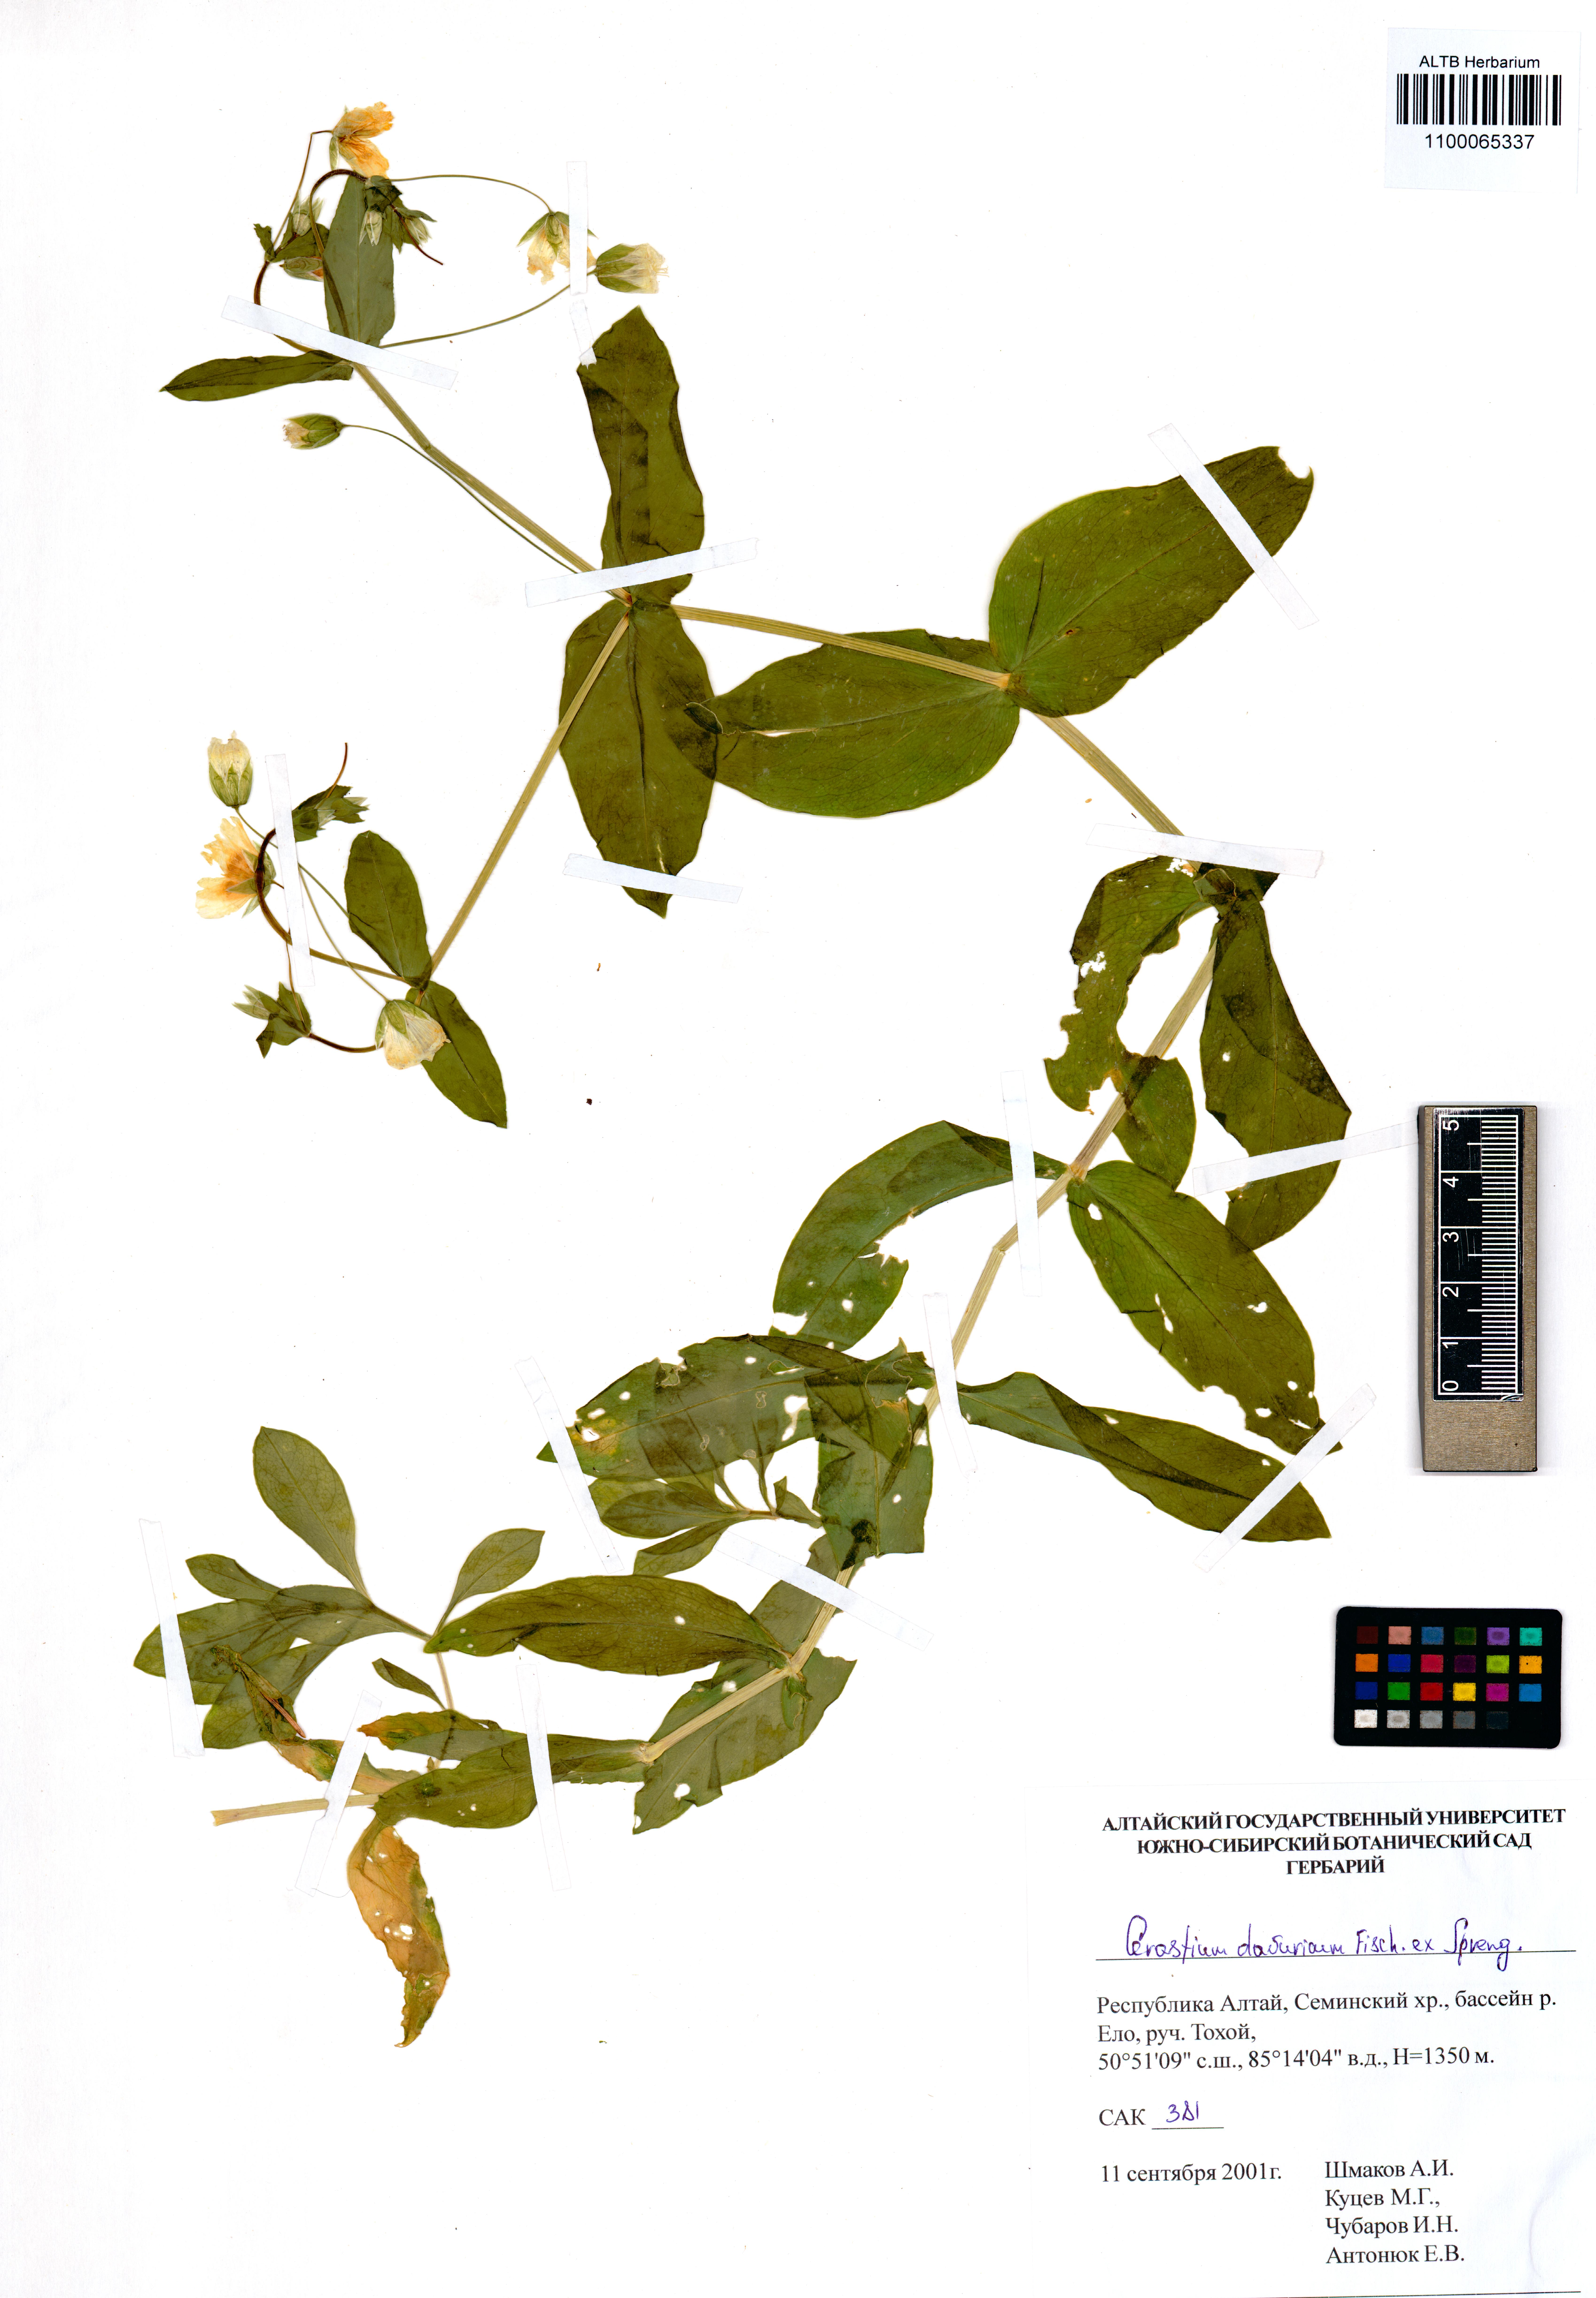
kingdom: Plantae
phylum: Tracheophyta
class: Magnoliopsida
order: Caryophyllales
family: Caryophyllaceae
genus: Dichodon
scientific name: Dichodon davuricum
